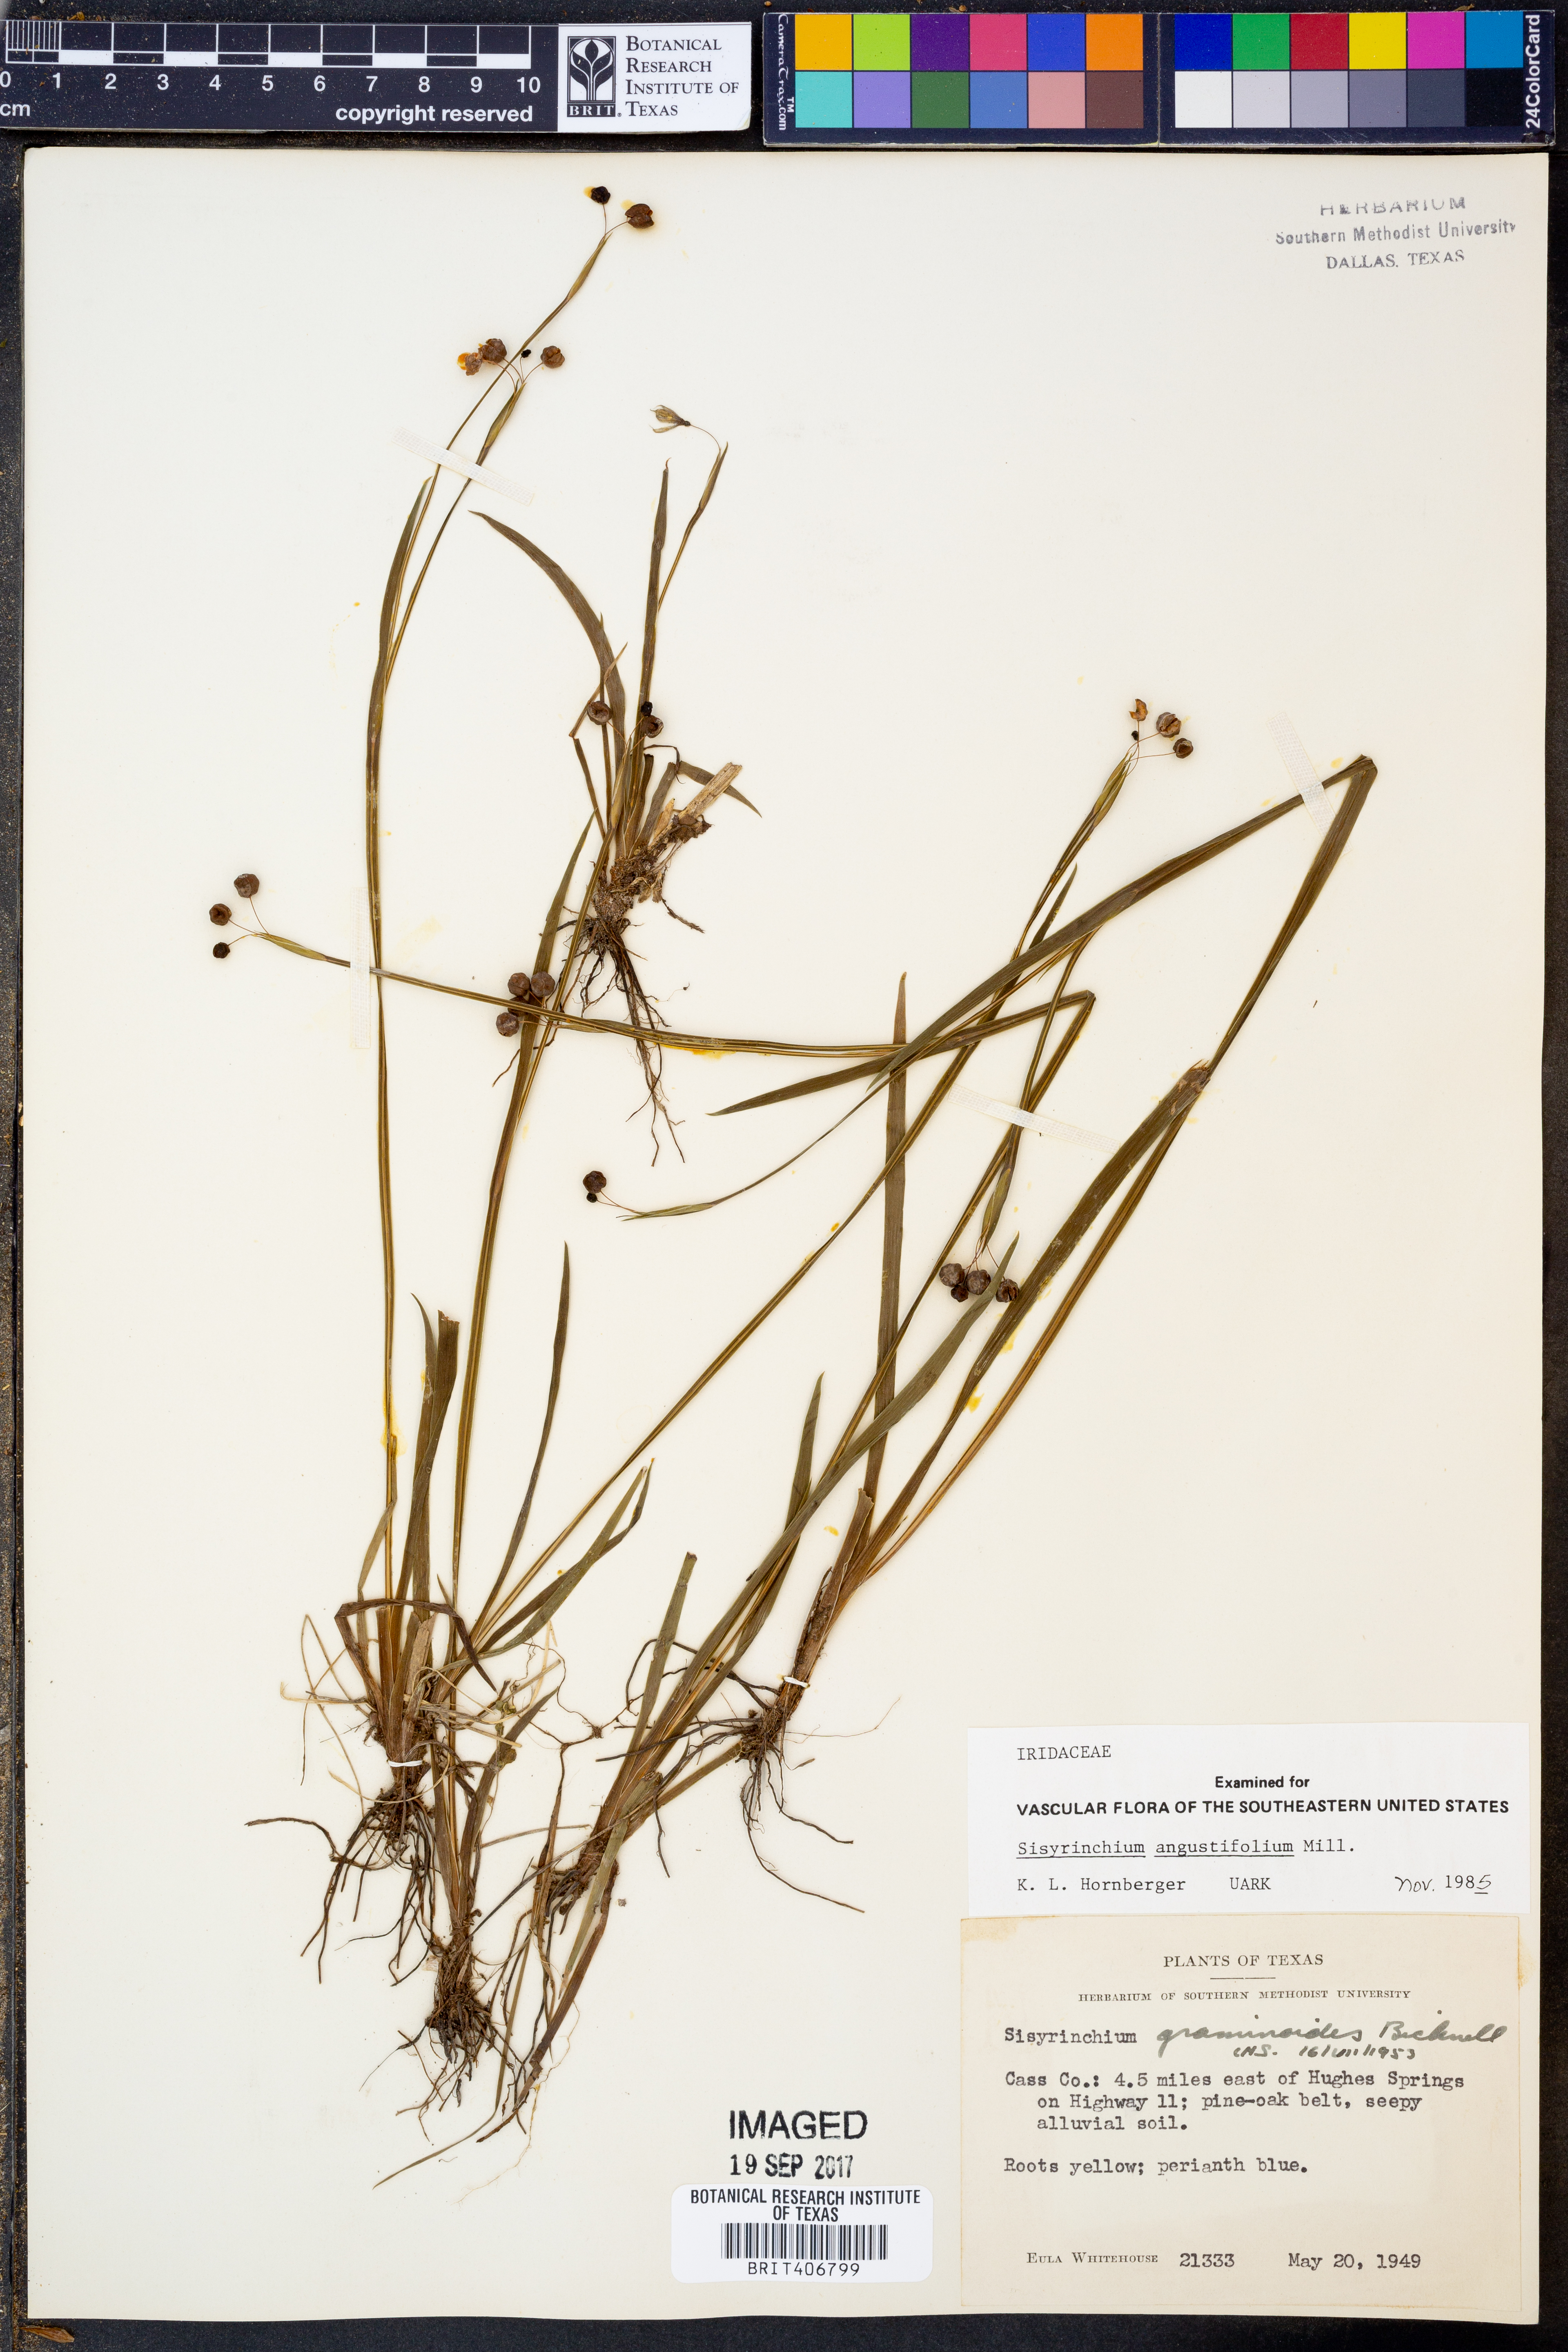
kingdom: Plantae
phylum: Tracheophyta
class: Liliopsida
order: Asparagales
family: Iridaceae
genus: Sisyrinchium
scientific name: Sisyrinchium angustifolium
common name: Narrow-leaf blue-eyed-grass
